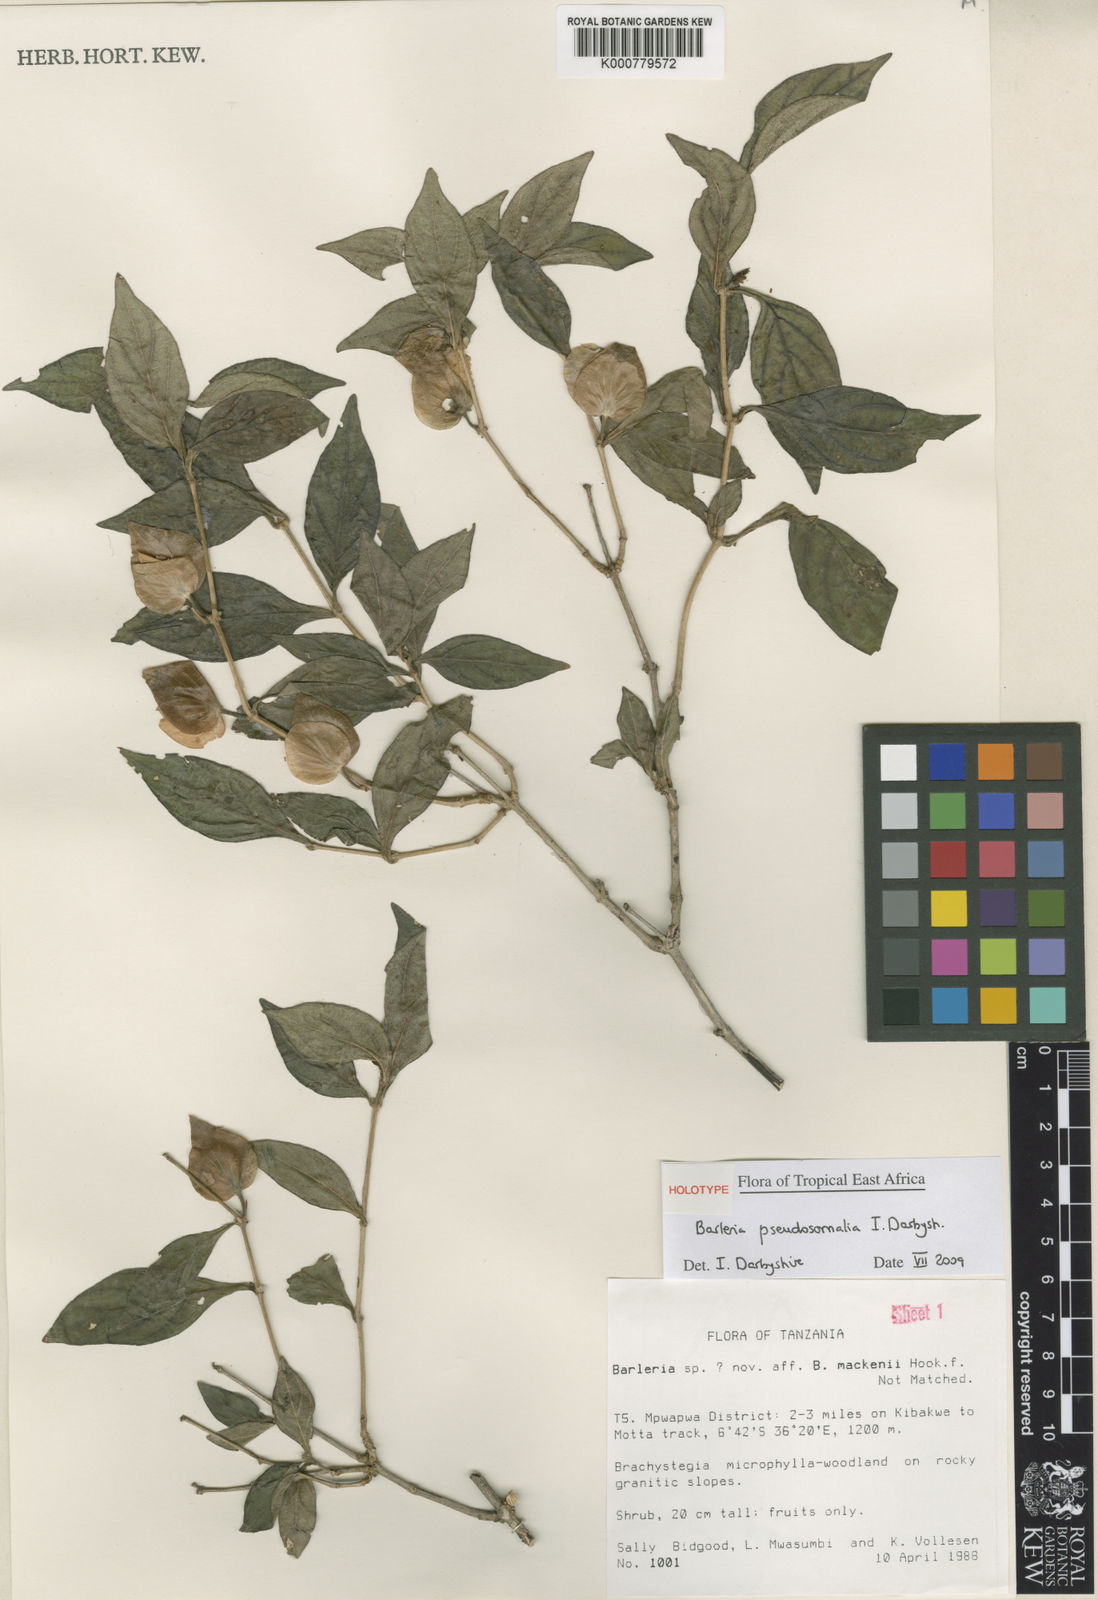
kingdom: Plantae
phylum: Tracheophyta
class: Magnoliopsida
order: Lamiales
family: Acanthaceae
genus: Barleria
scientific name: Barleria pseudosomalia
